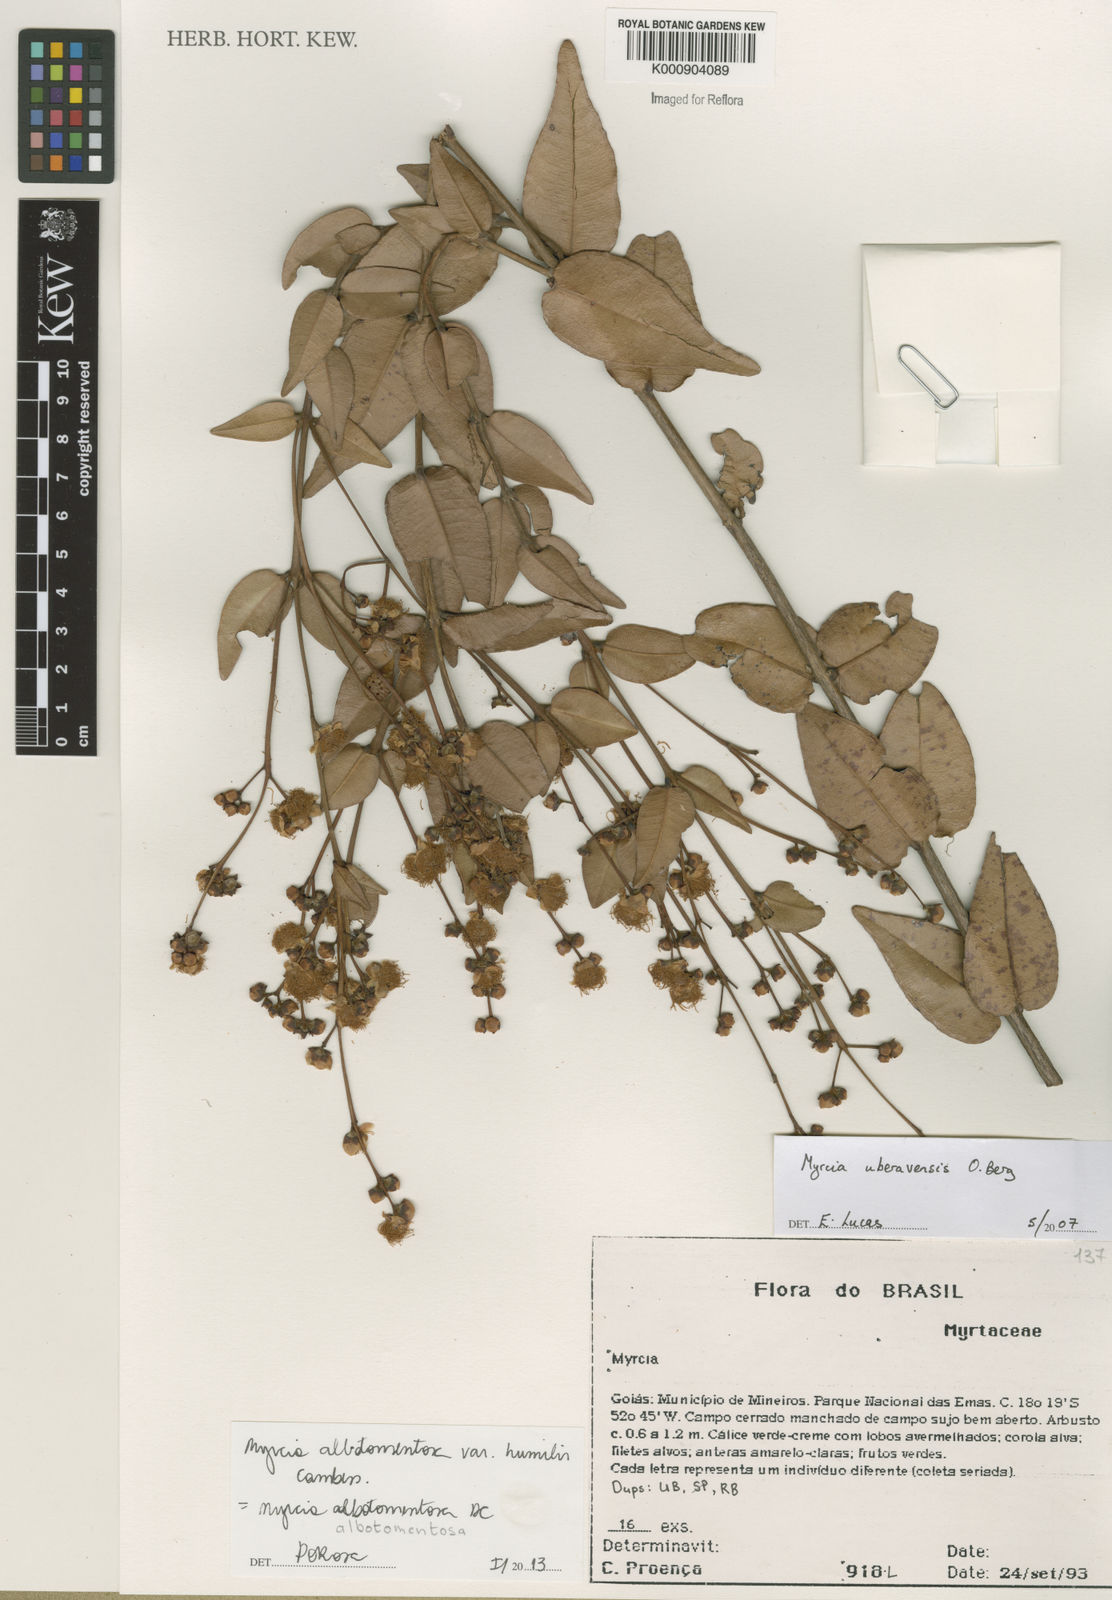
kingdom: Plantae
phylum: Tracheophyta
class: Magnoliopsida
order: Myrtales
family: Myrtaceae
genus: Myrcia
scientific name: Myrcia albotomentosa
